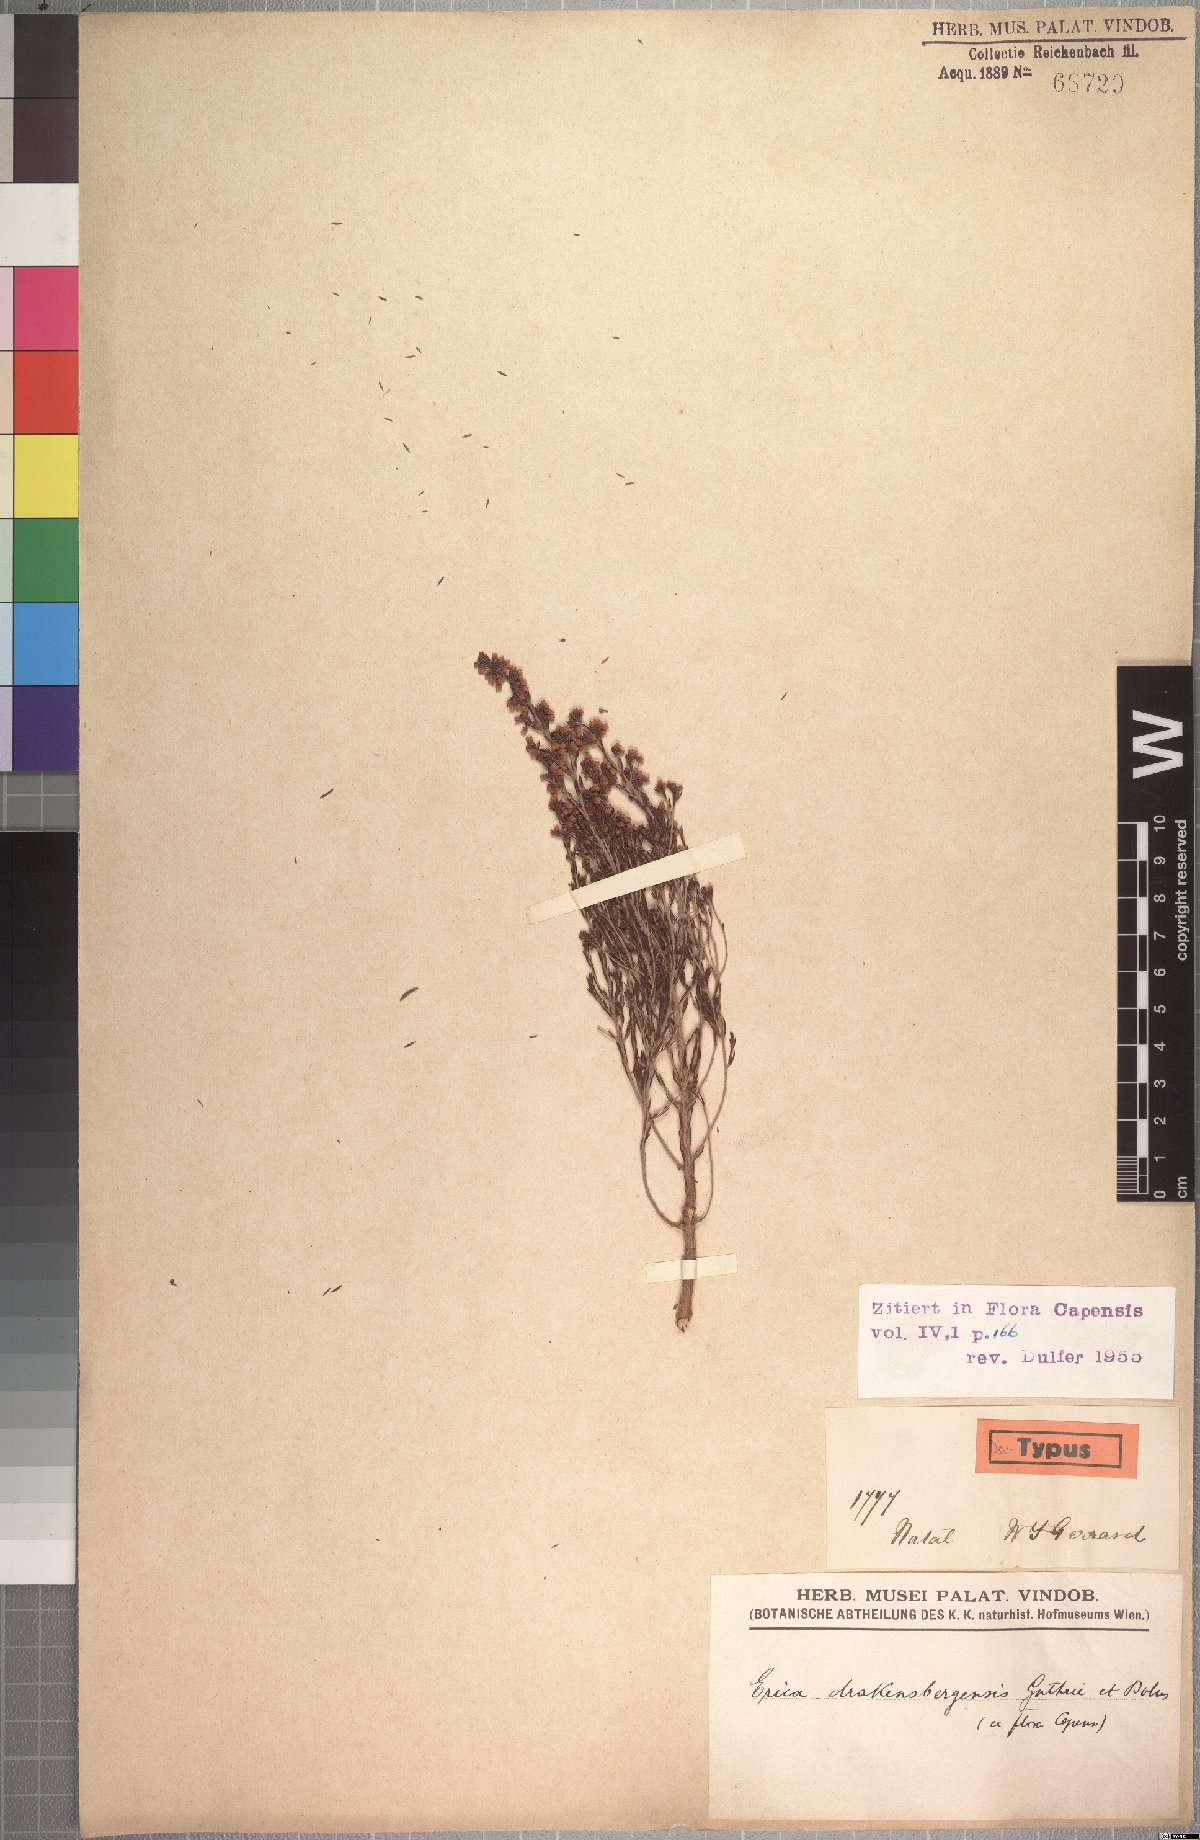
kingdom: Plantae
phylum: Tracheophyta
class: Magnoliopsida
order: Ericales
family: Ericaceae
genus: Erica
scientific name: Erica drakensbergensis
